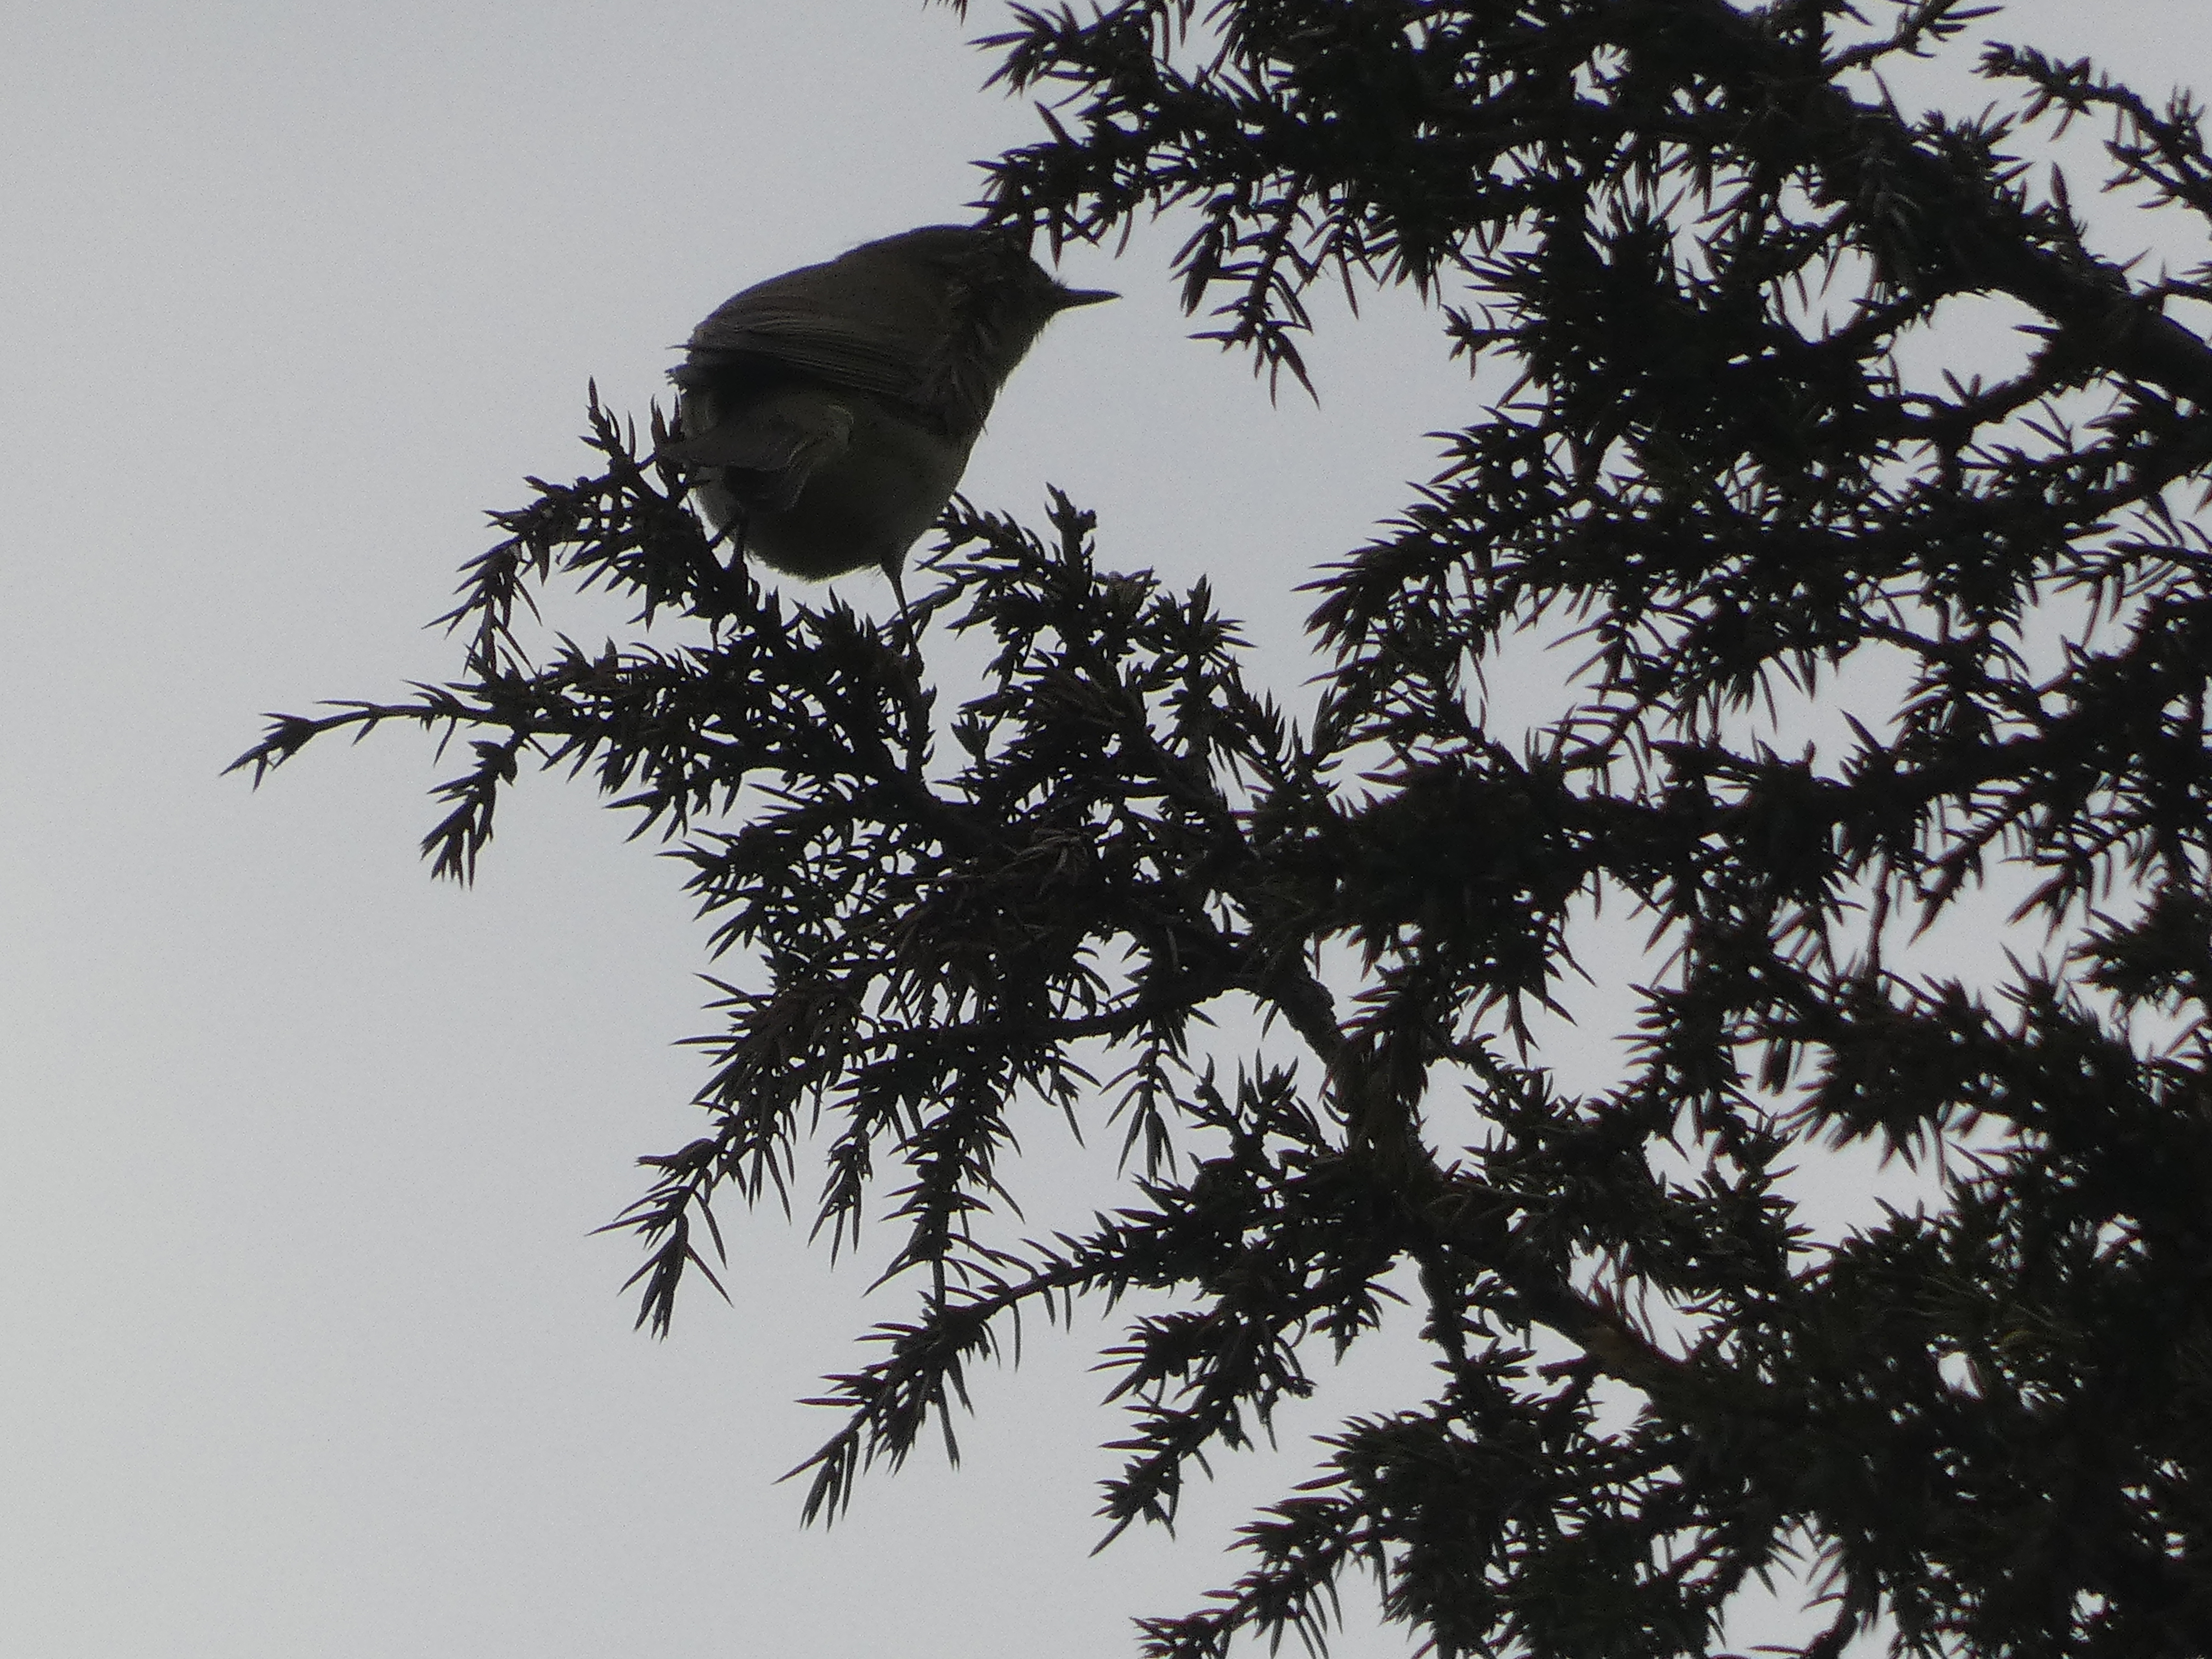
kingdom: Animalia
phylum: Chordata
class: Aves
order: Passeriformes
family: Phylloscopidae
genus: Phylloscopus
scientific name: Phylloscopus collybita
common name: Gransanger
